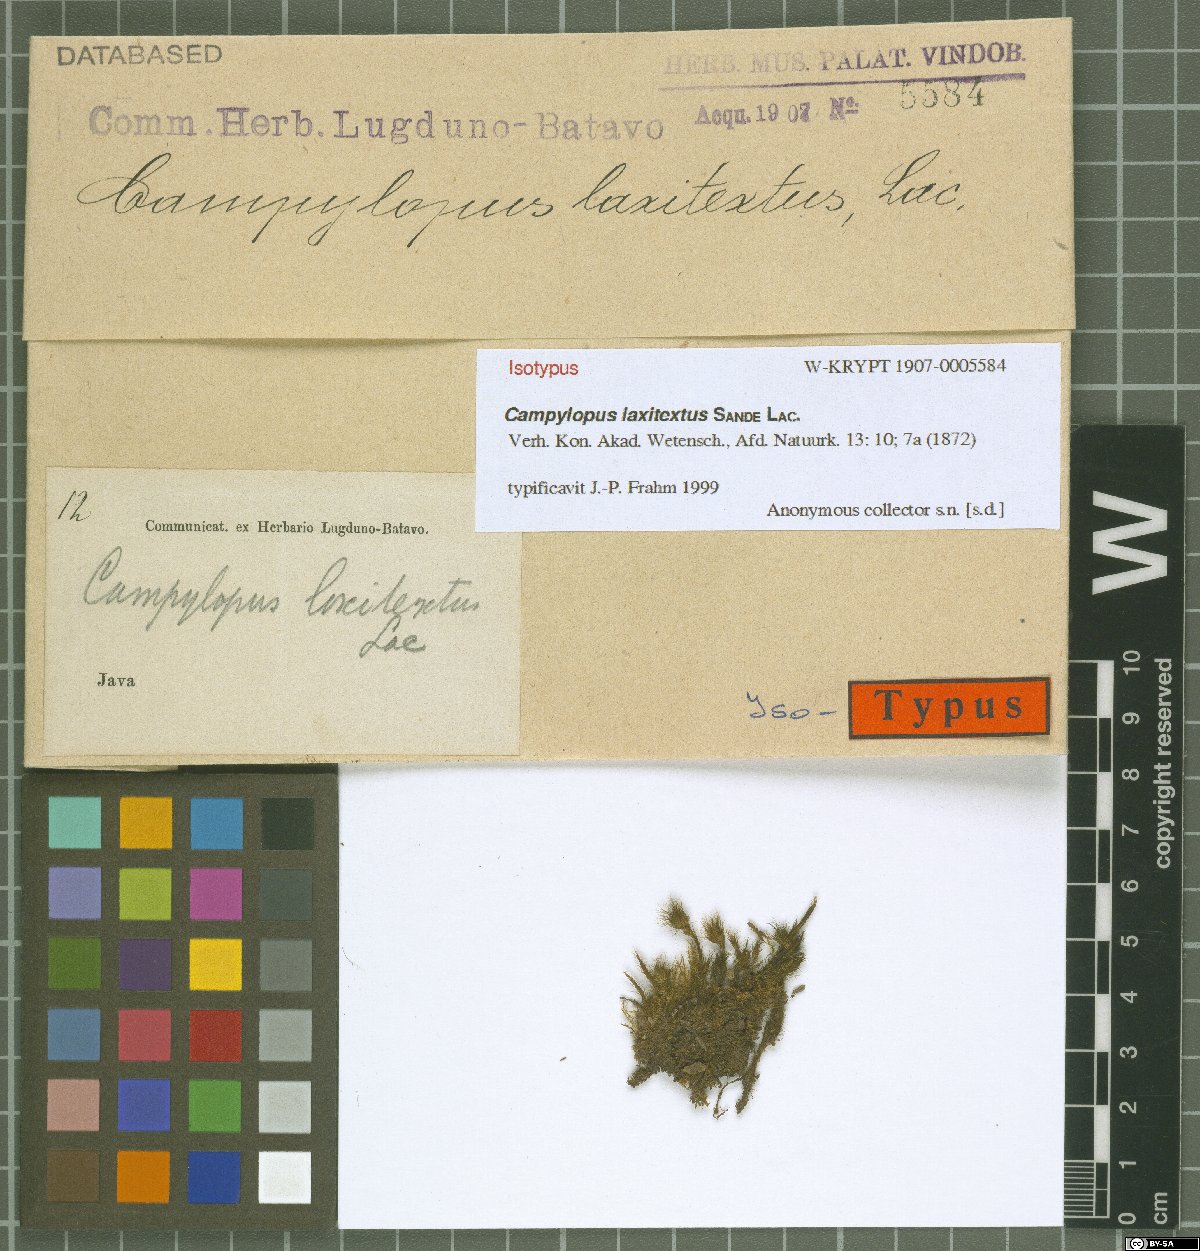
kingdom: Plantae
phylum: Bryophyta
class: Bryopsida
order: Dicranales
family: Leucobryaceae
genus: Campylopus
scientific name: Campylopus laxitextus
